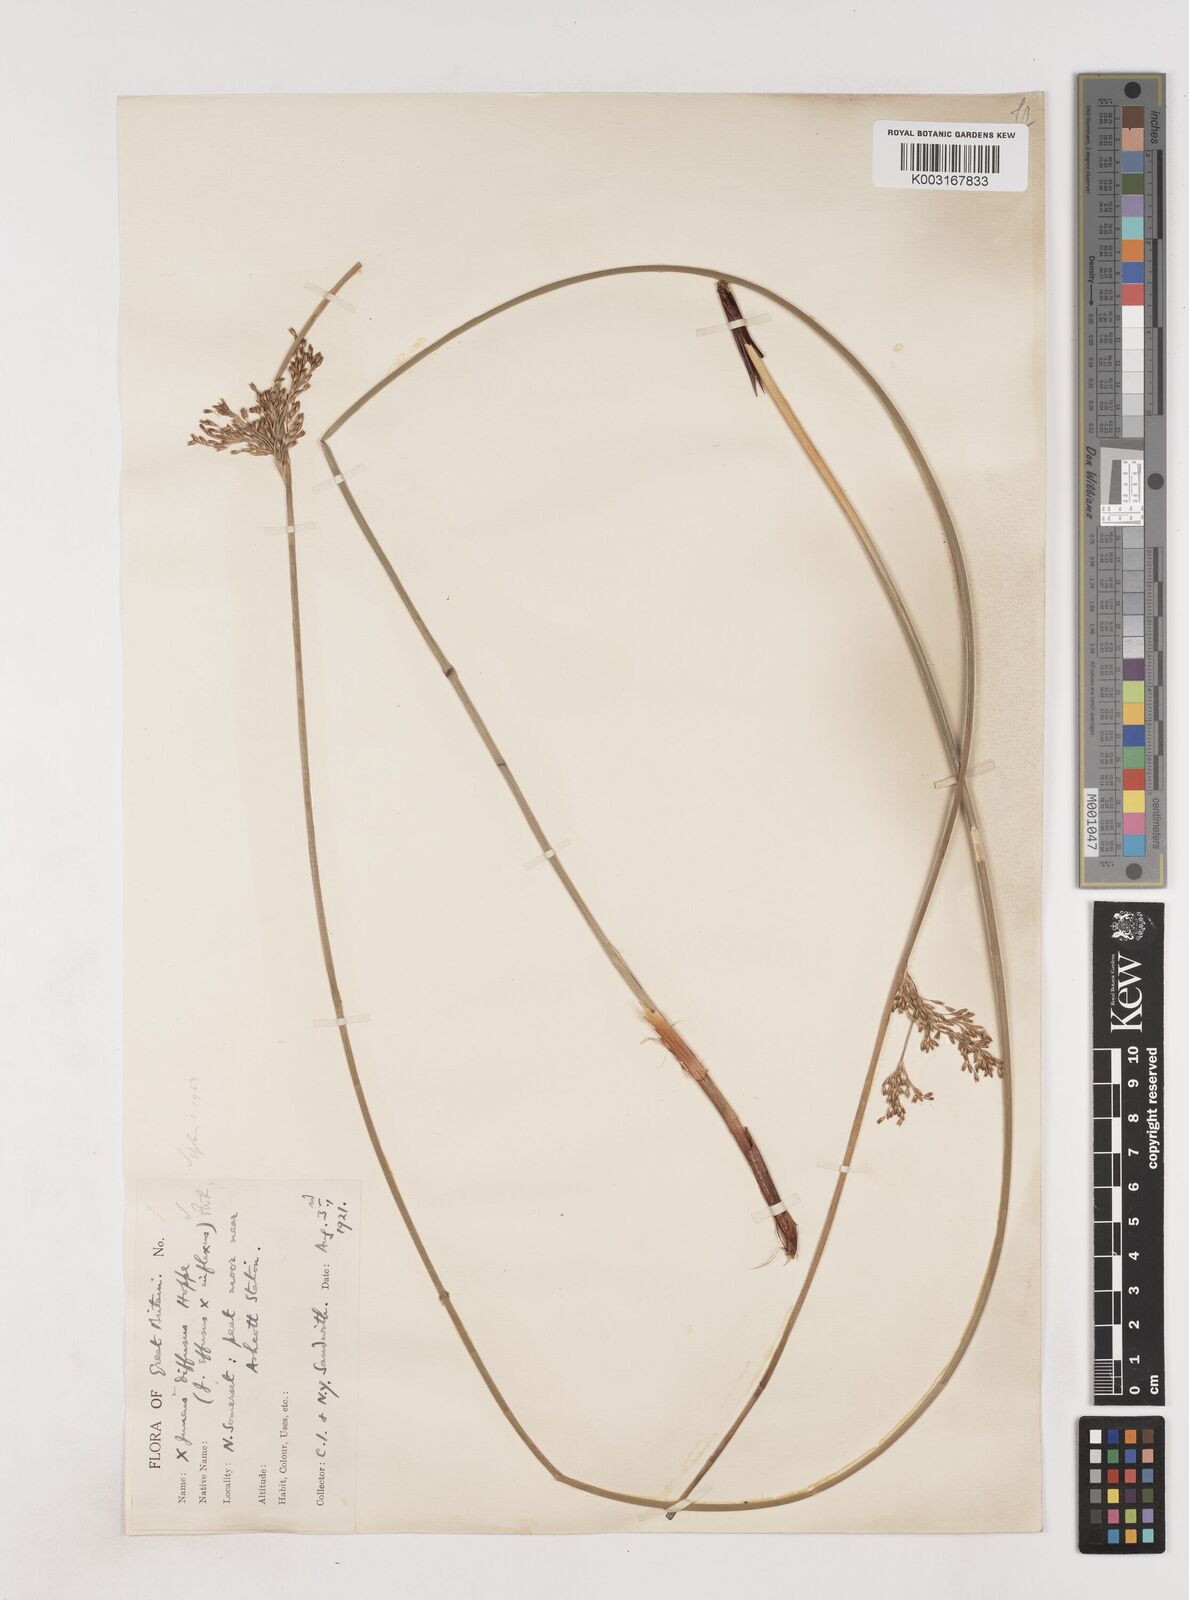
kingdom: Plantae
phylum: Tracheophyta
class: Liliopsida
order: Poales
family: Juncaceae
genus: Juncus
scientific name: Juncus effusus
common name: Soft rush
